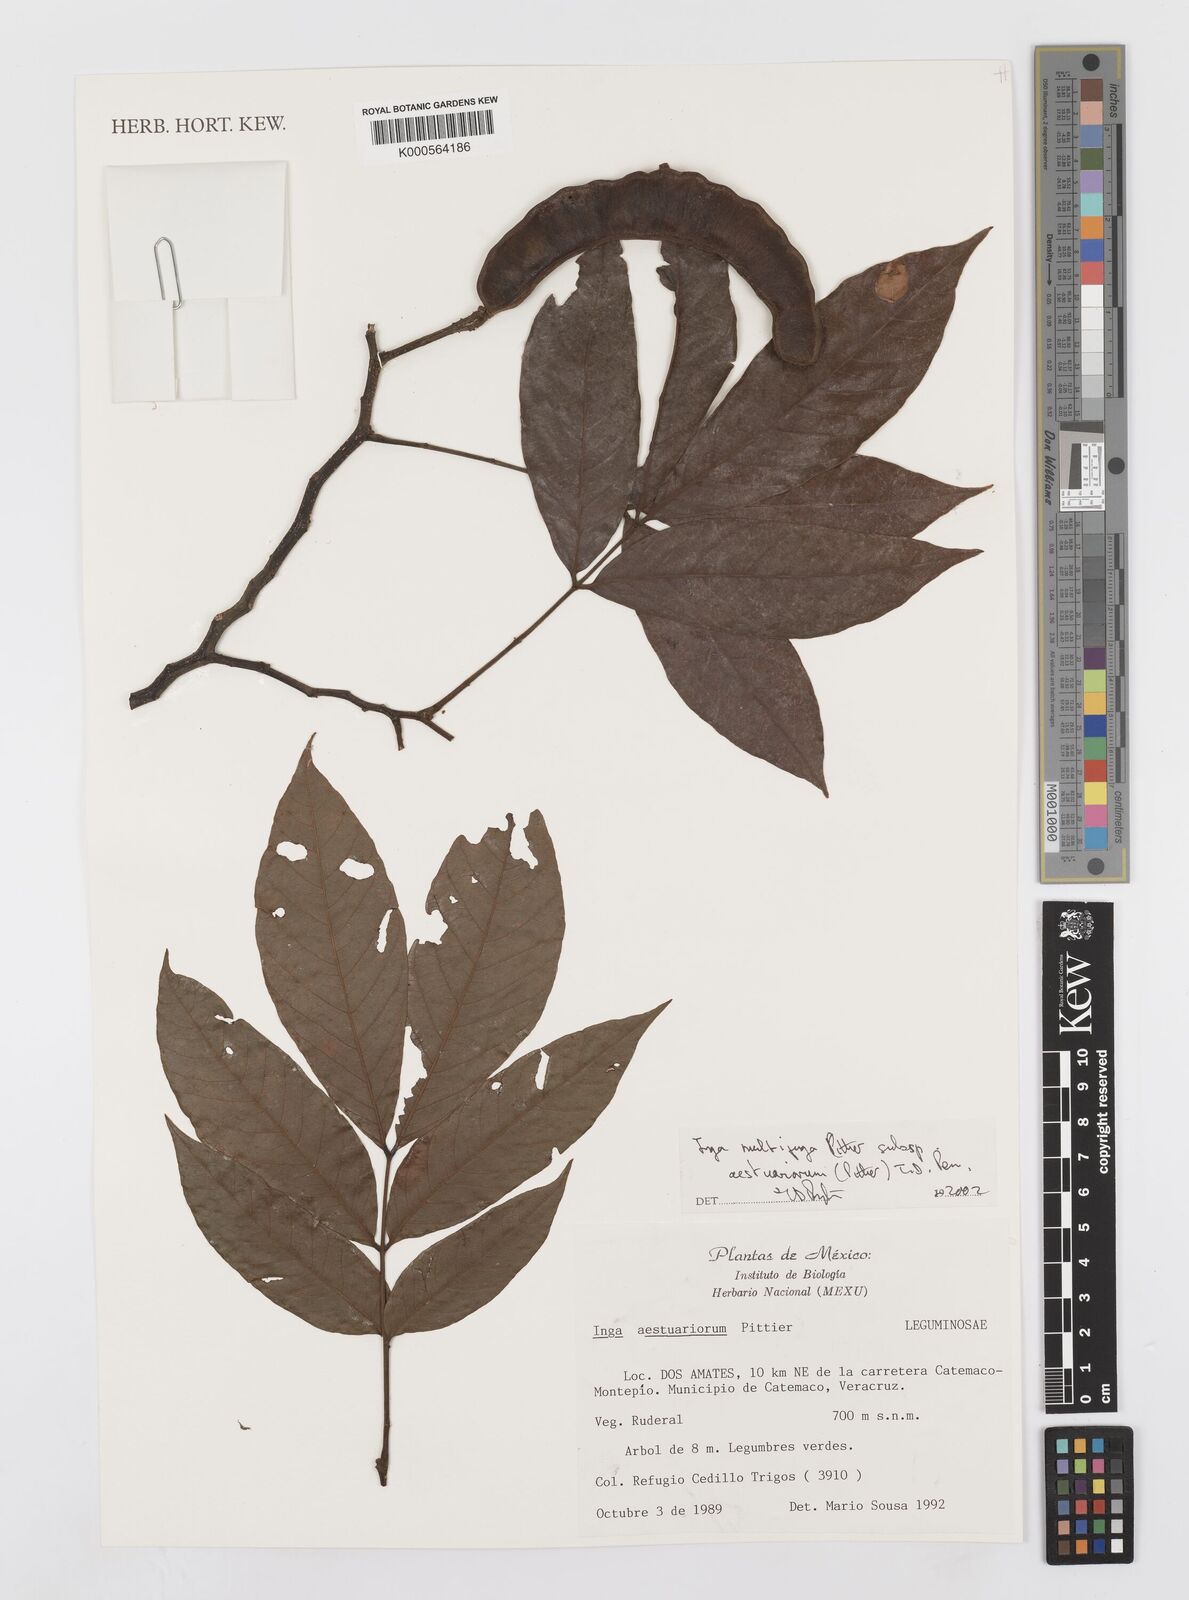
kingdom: Plantae
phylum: Tracheophyta
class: Magnoliopsida
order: Fabales
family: Fabaceae
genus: Inga
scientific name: Inga multijuga
